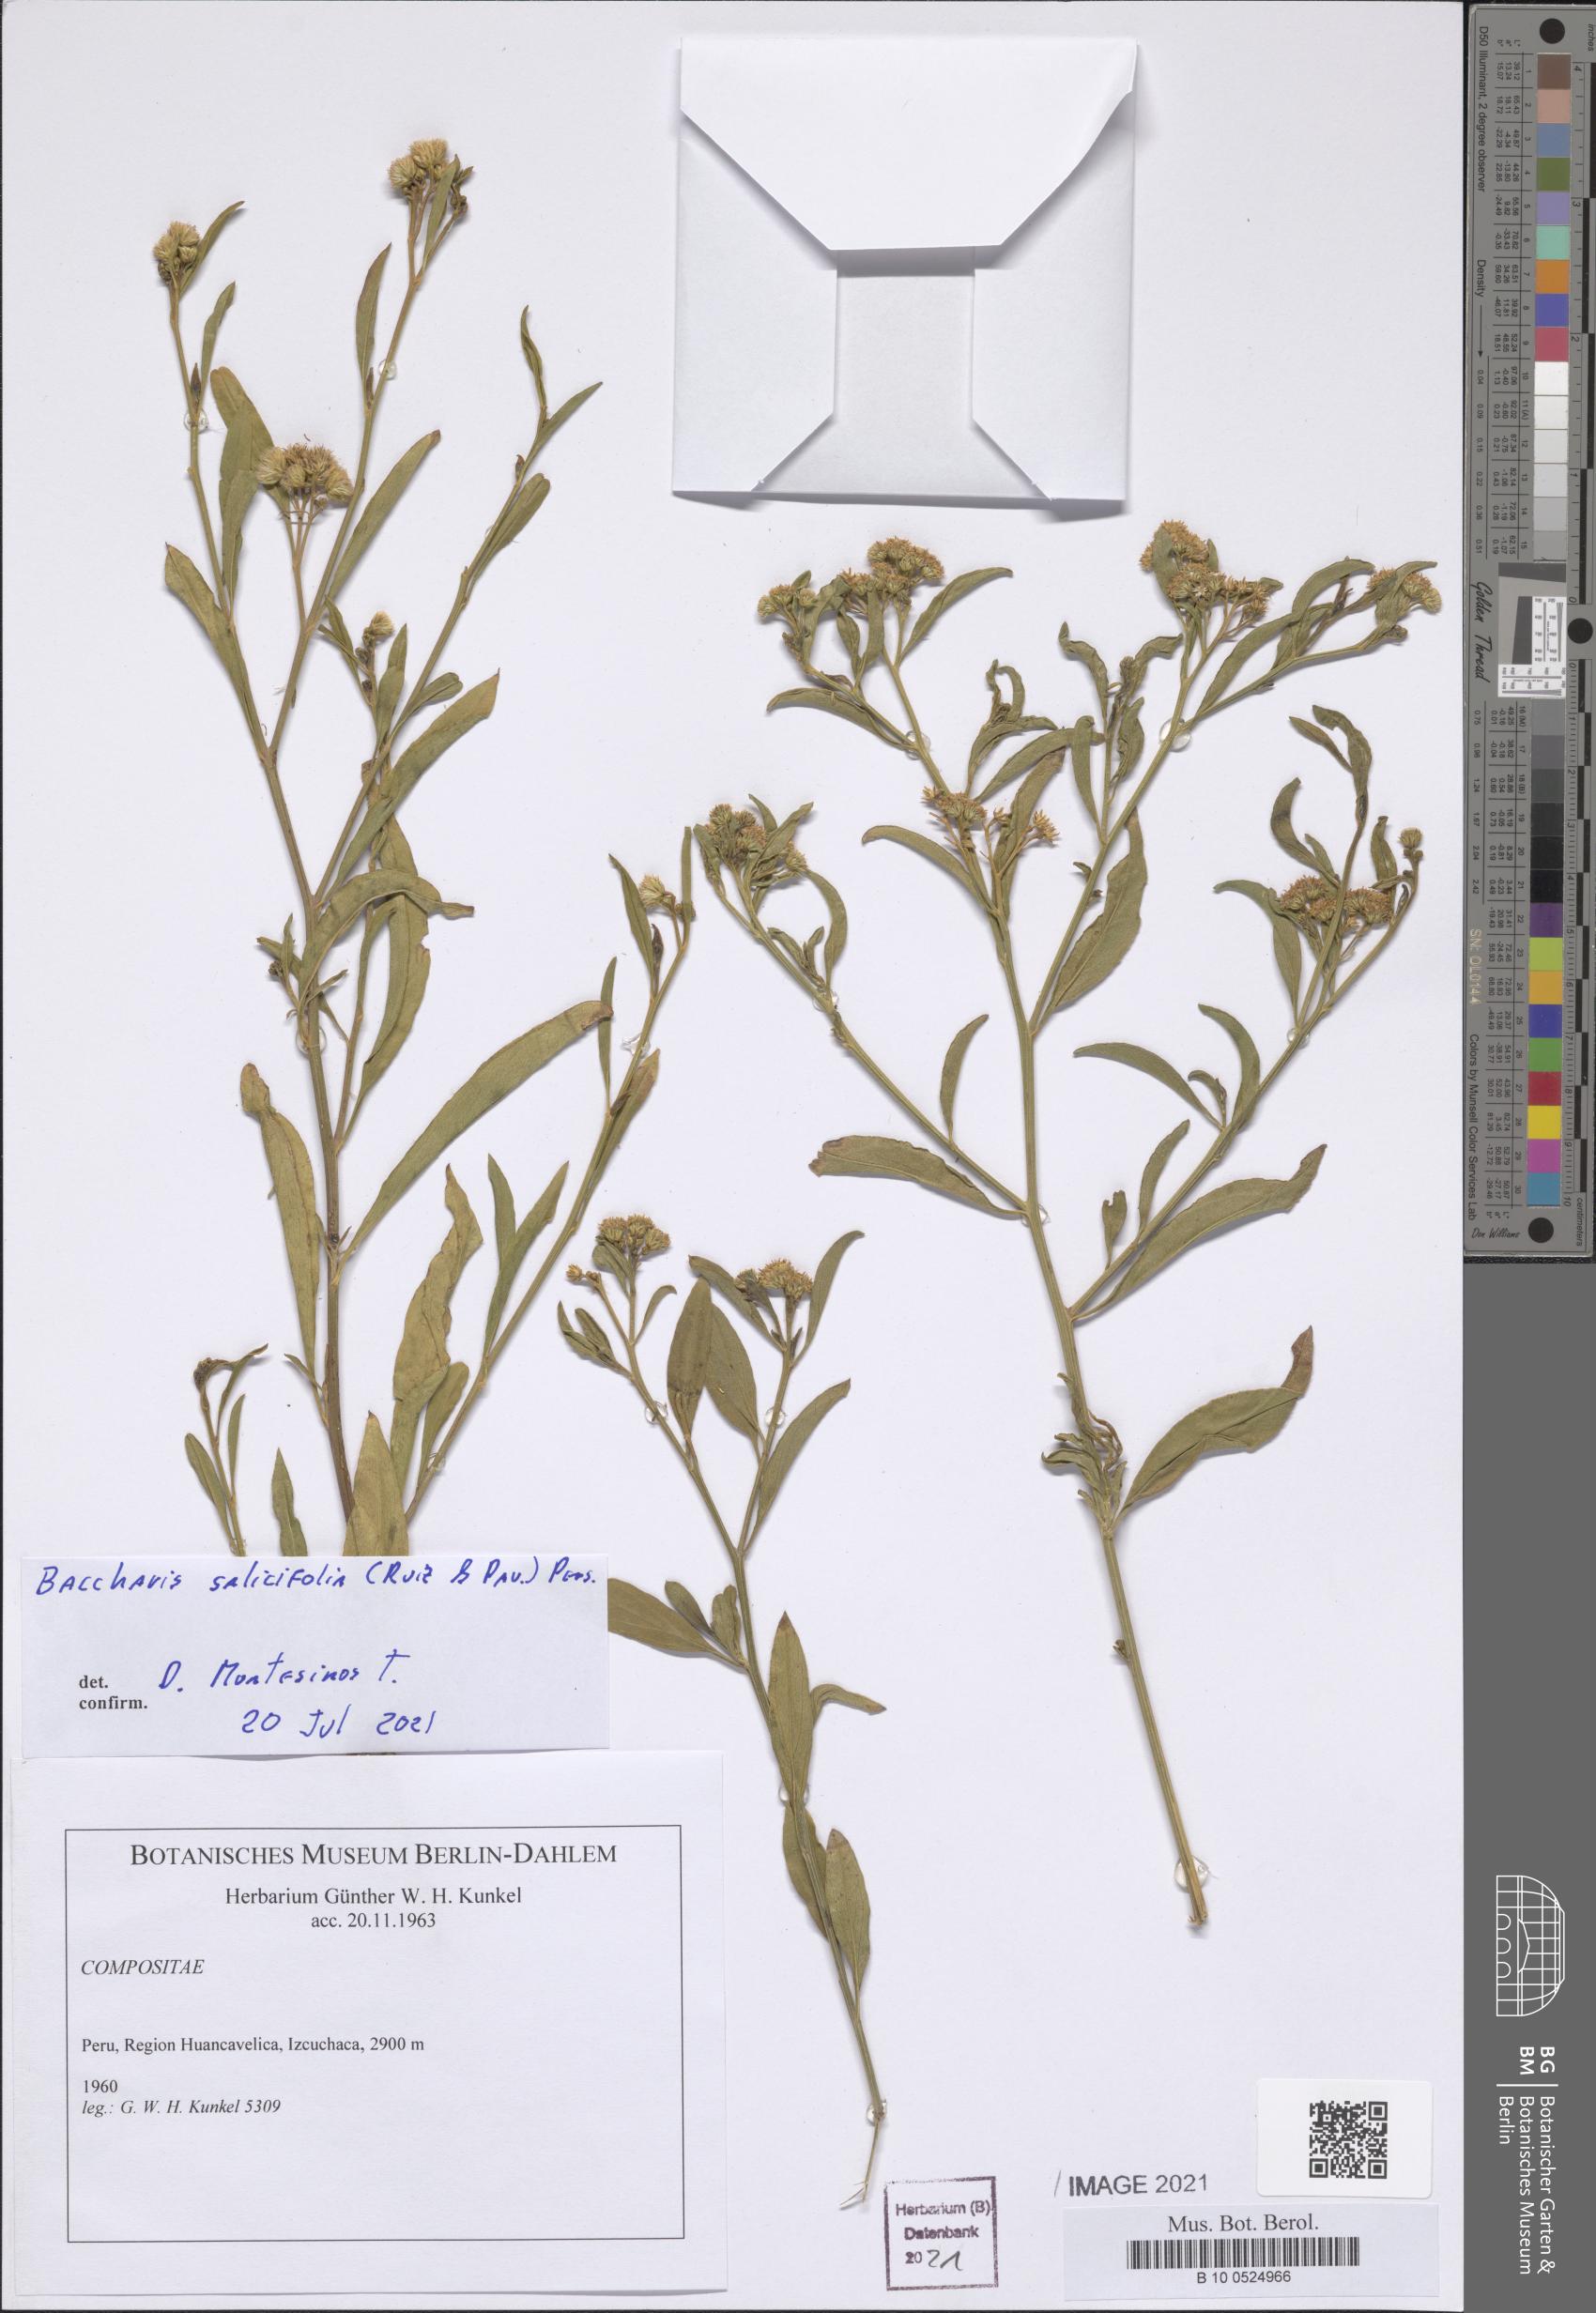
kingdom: Plantae
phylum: Tracheophyta
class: Magnoliopsida
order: Asterales
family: Asteraceae
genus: Baccharis
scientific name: Baccharis salicifolia
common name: Sticky baccharis
